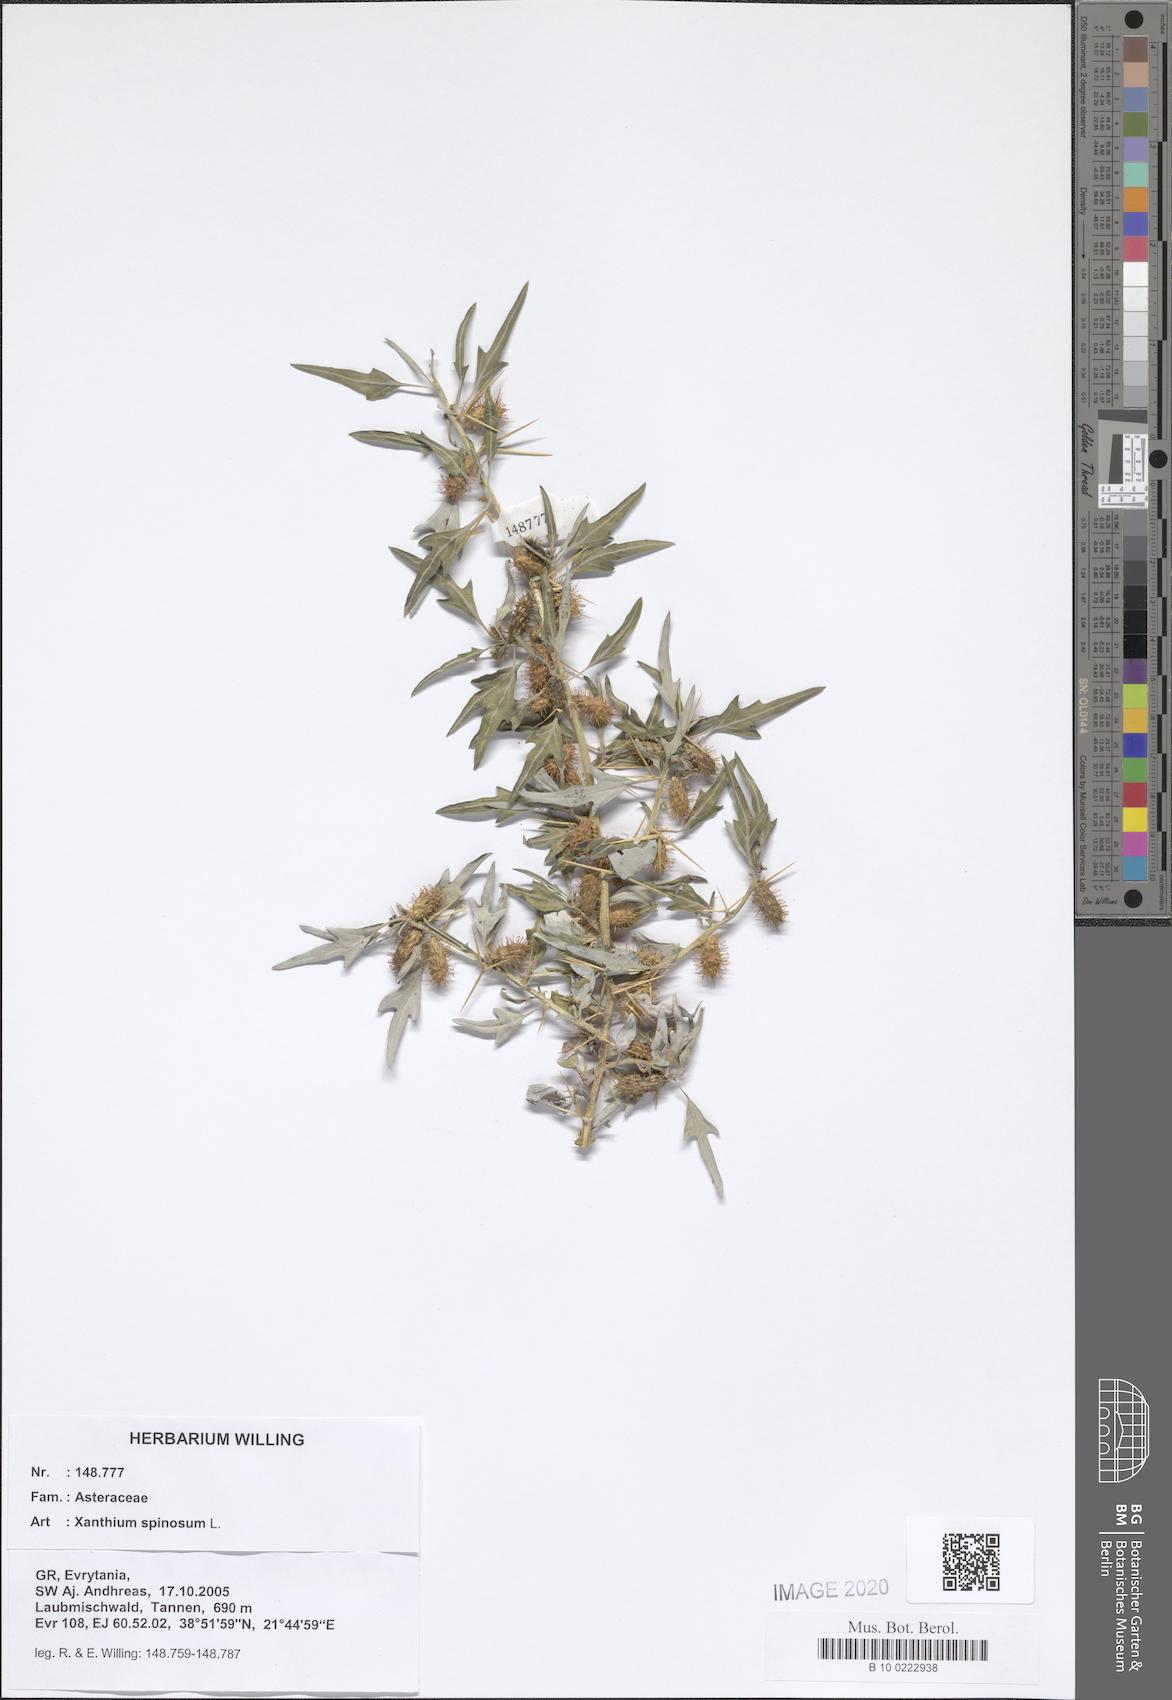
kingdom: Plantae
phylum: Tracheophyta
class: Magnoliopsida
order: Asterales
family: Asteraceae
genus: Xanthium
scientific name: Xanthium spinosum
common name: Spiny cocklebur
